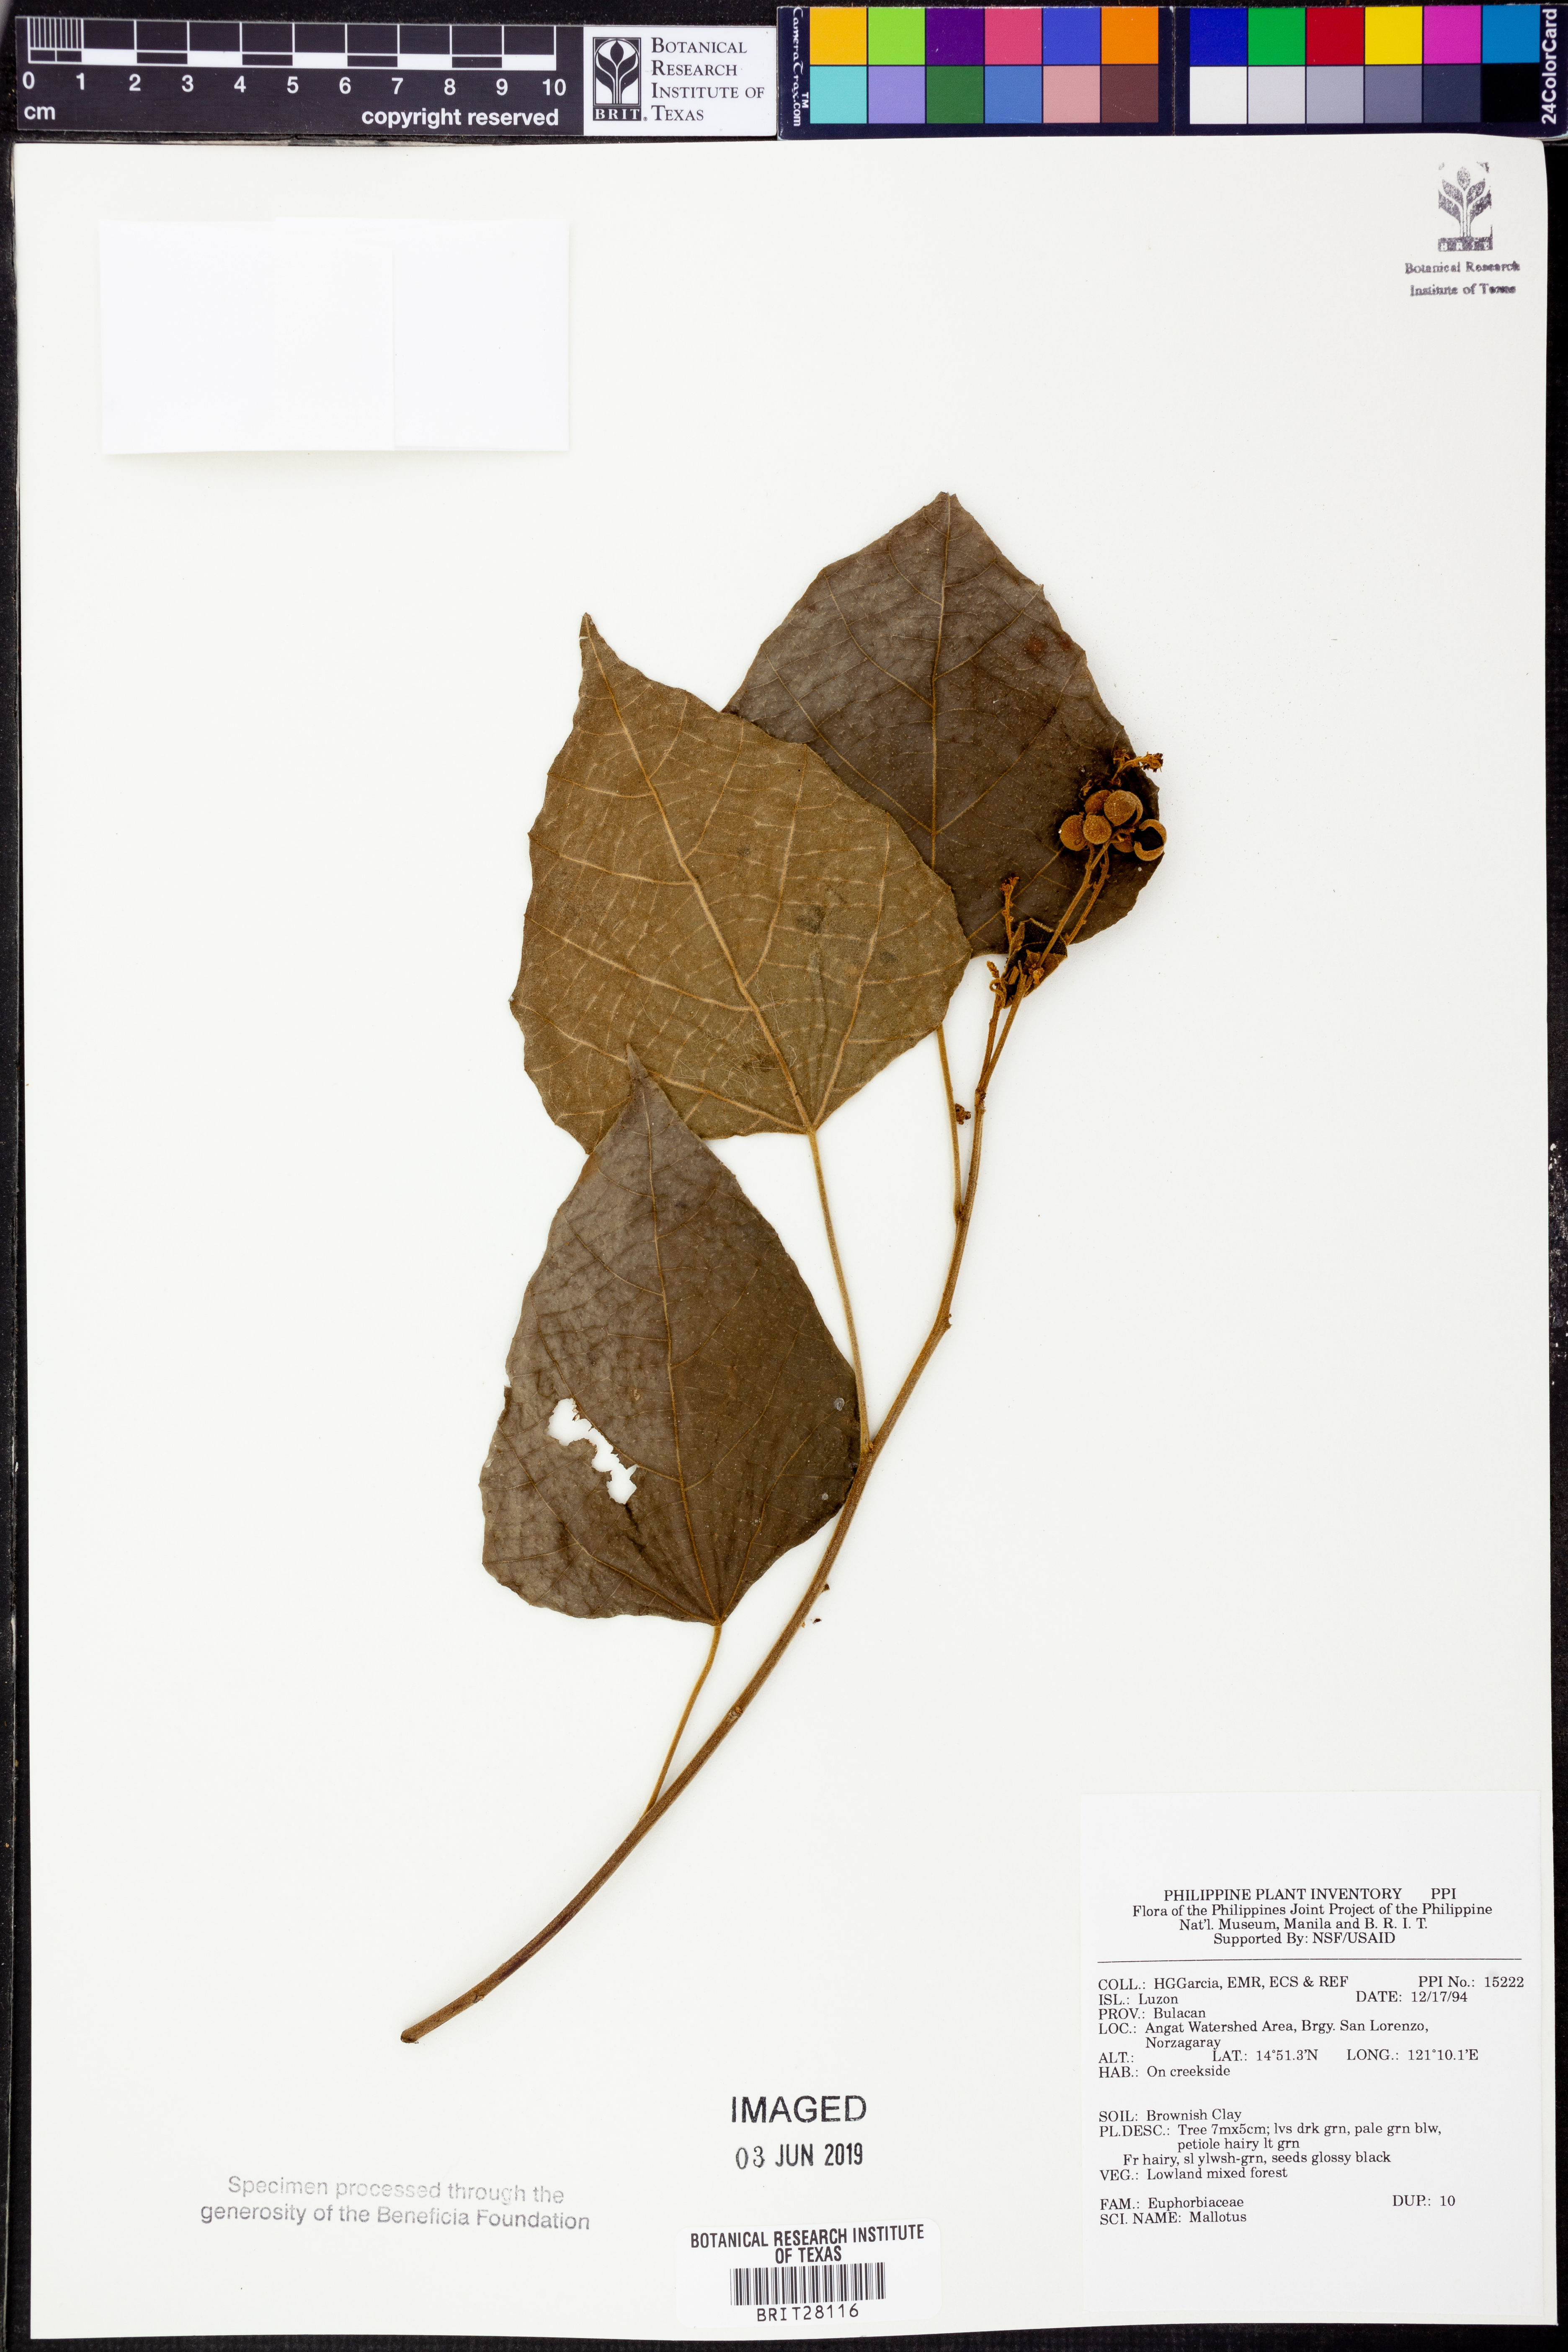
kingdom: Plantae
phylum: Tracheophyta
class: Magnoliopsida
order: Malpighiales
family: Euphorbiaceae
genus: Mallotus
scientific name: Mallotus
